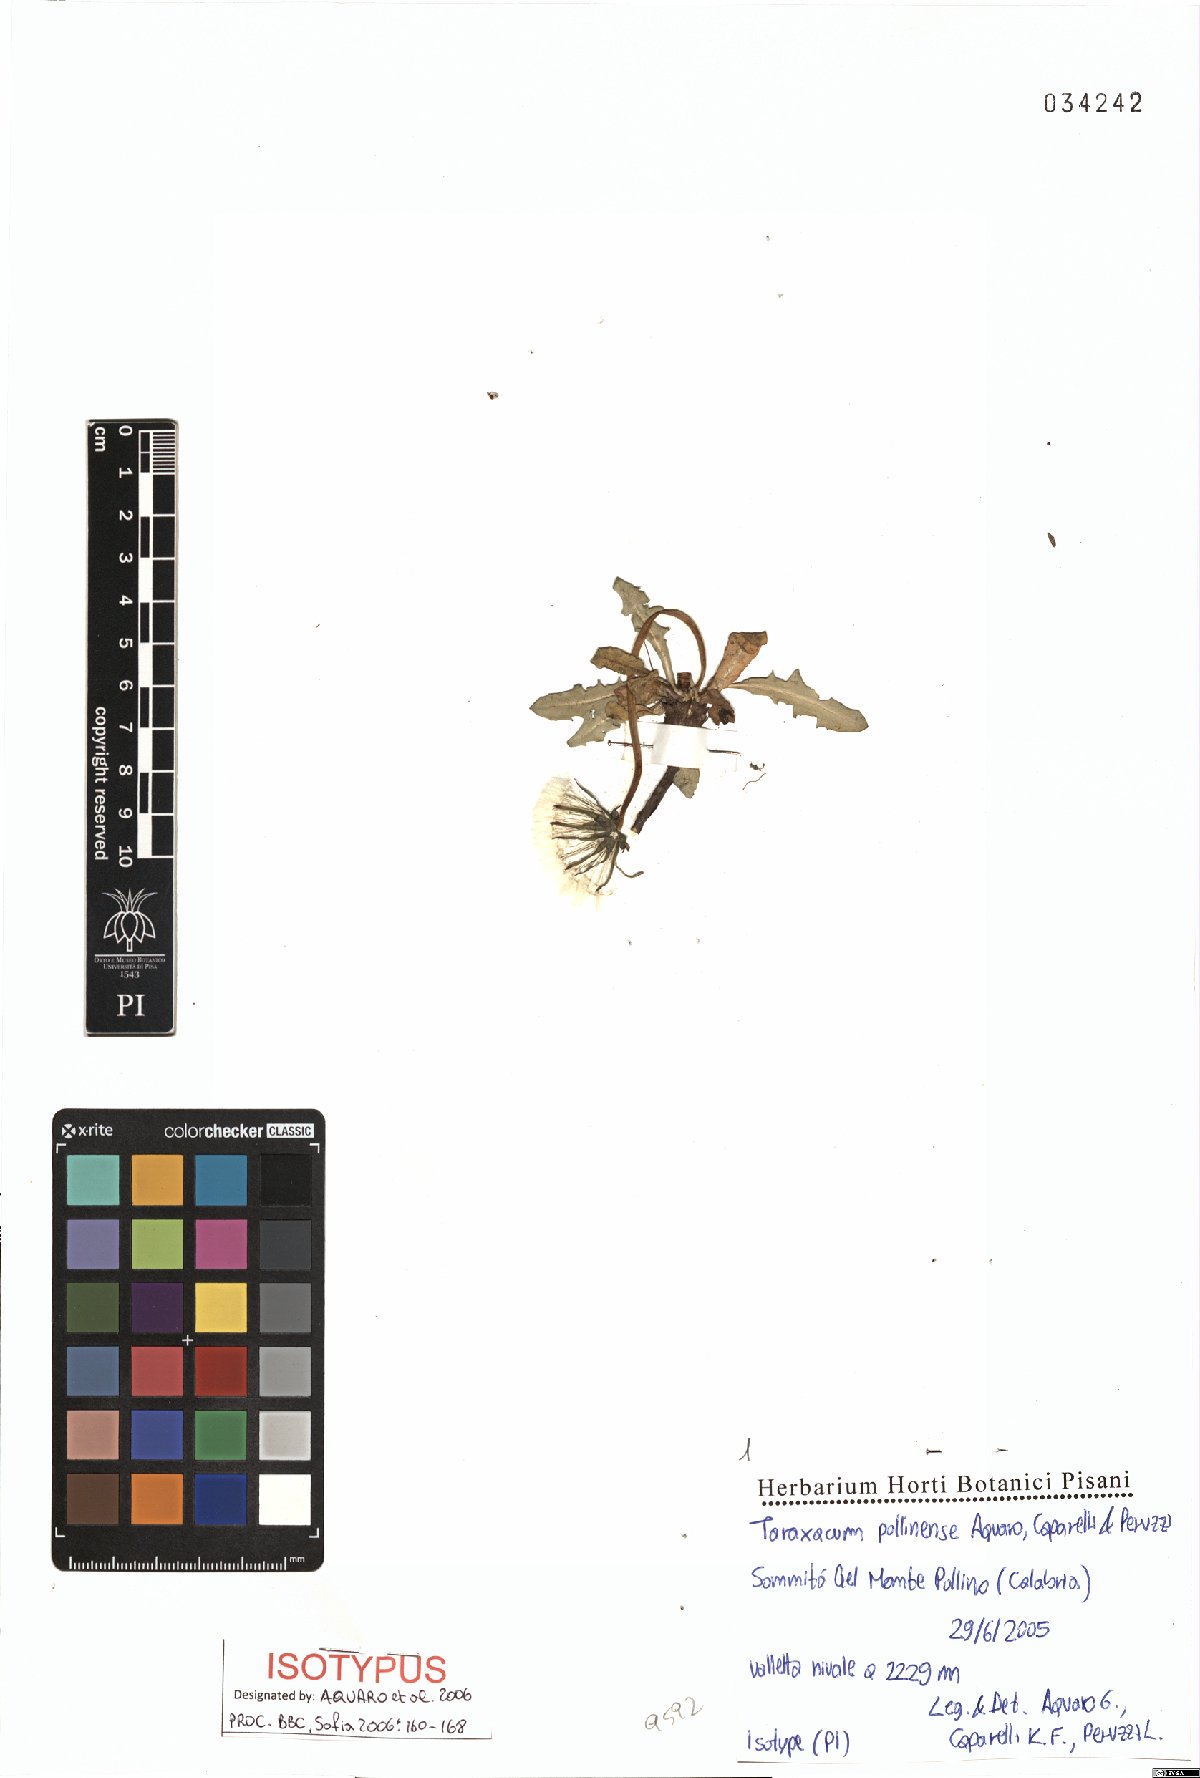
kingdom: Plantae
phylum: Tracheophyta
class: Magnoliopsida
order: Asterales
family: Asteraceae
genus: Taraxacum
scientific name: Taraxacum pollinense
